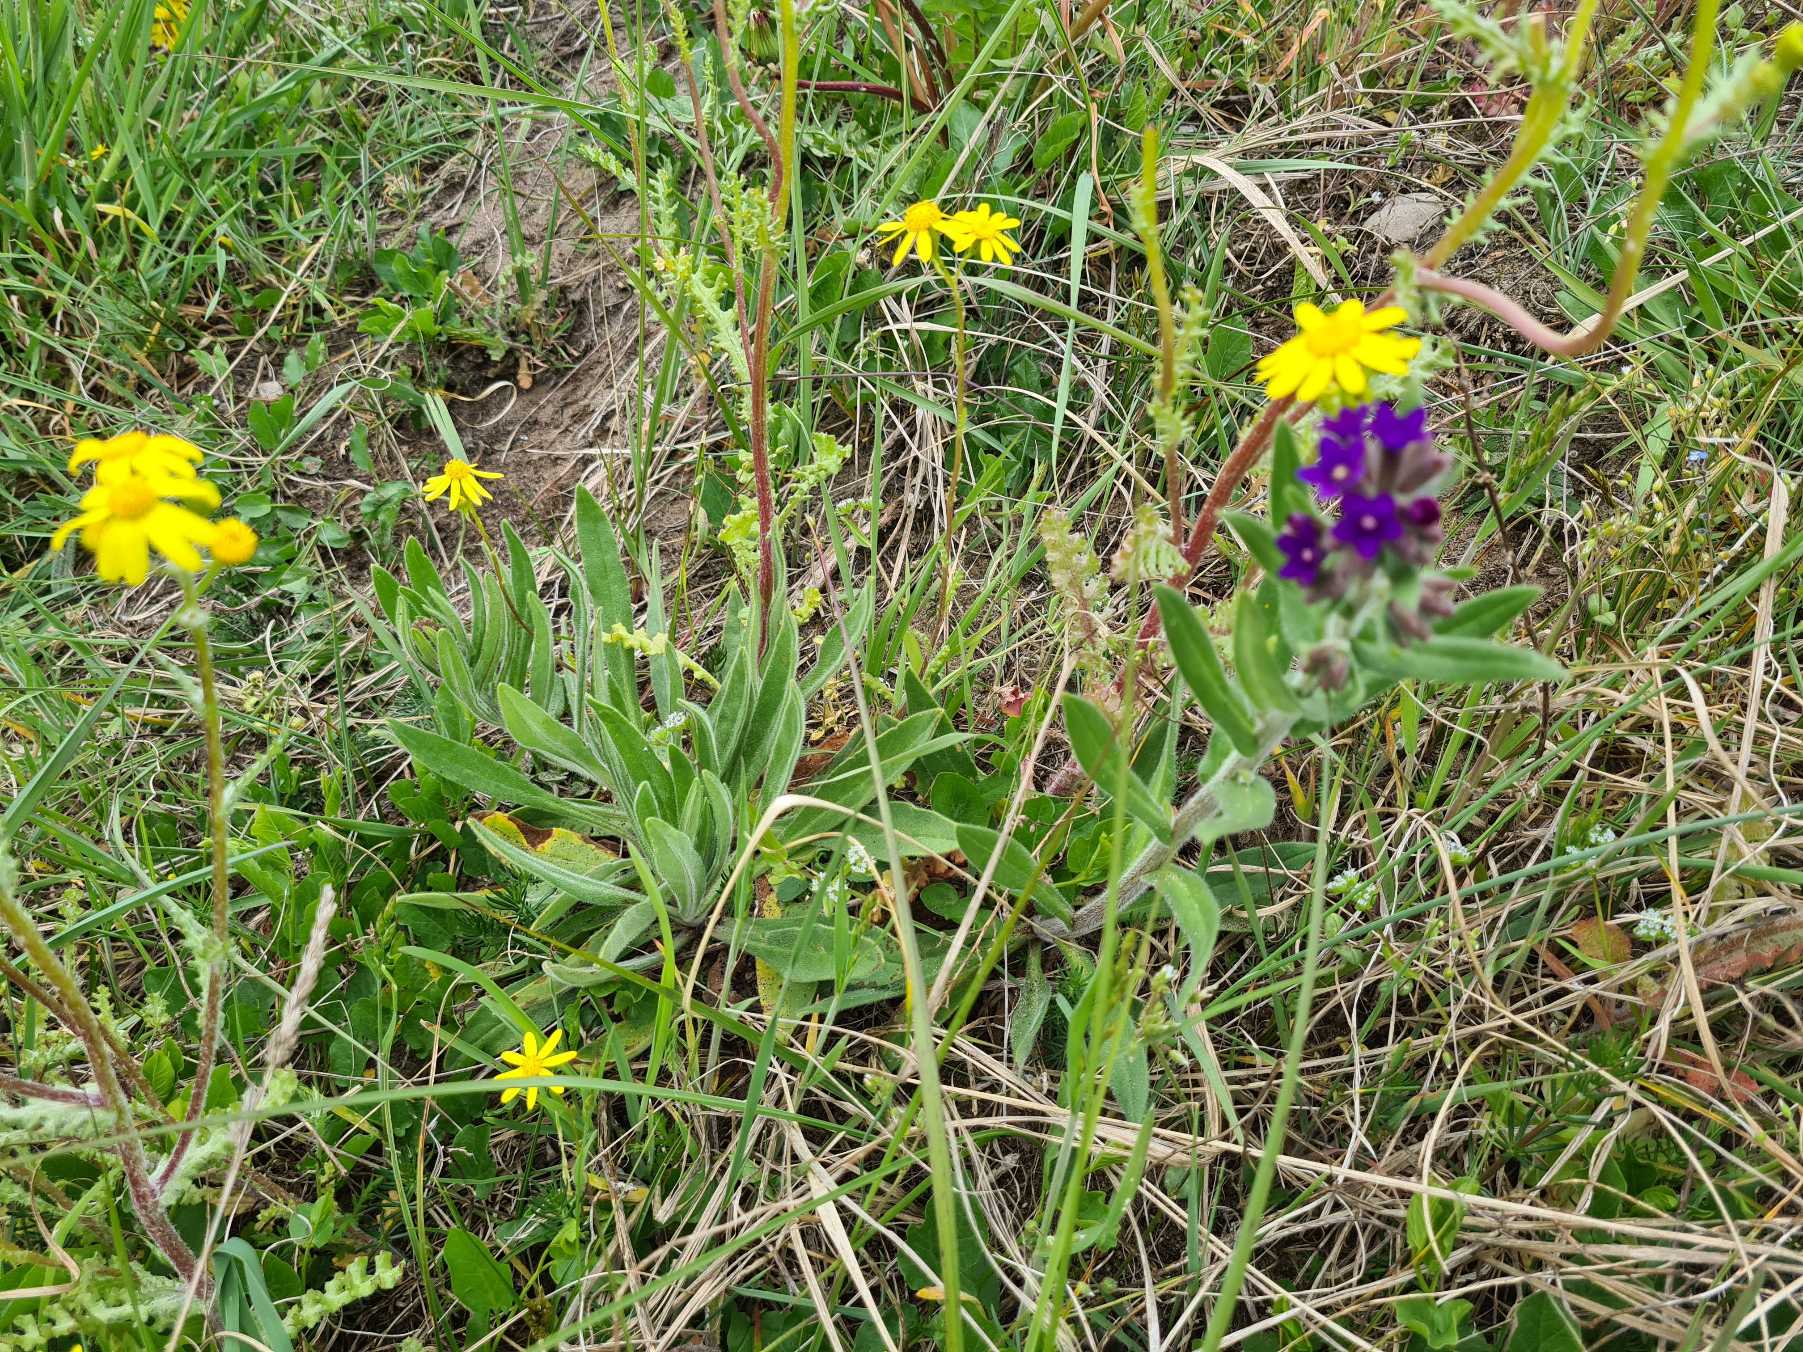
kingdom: Plantae
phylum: Tracheophyta
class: Magnoliopsida
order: Boraginales
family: Boraginaceae
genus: Anchusa
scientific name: Anchusa officinalis
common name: Læge-oksetunge
